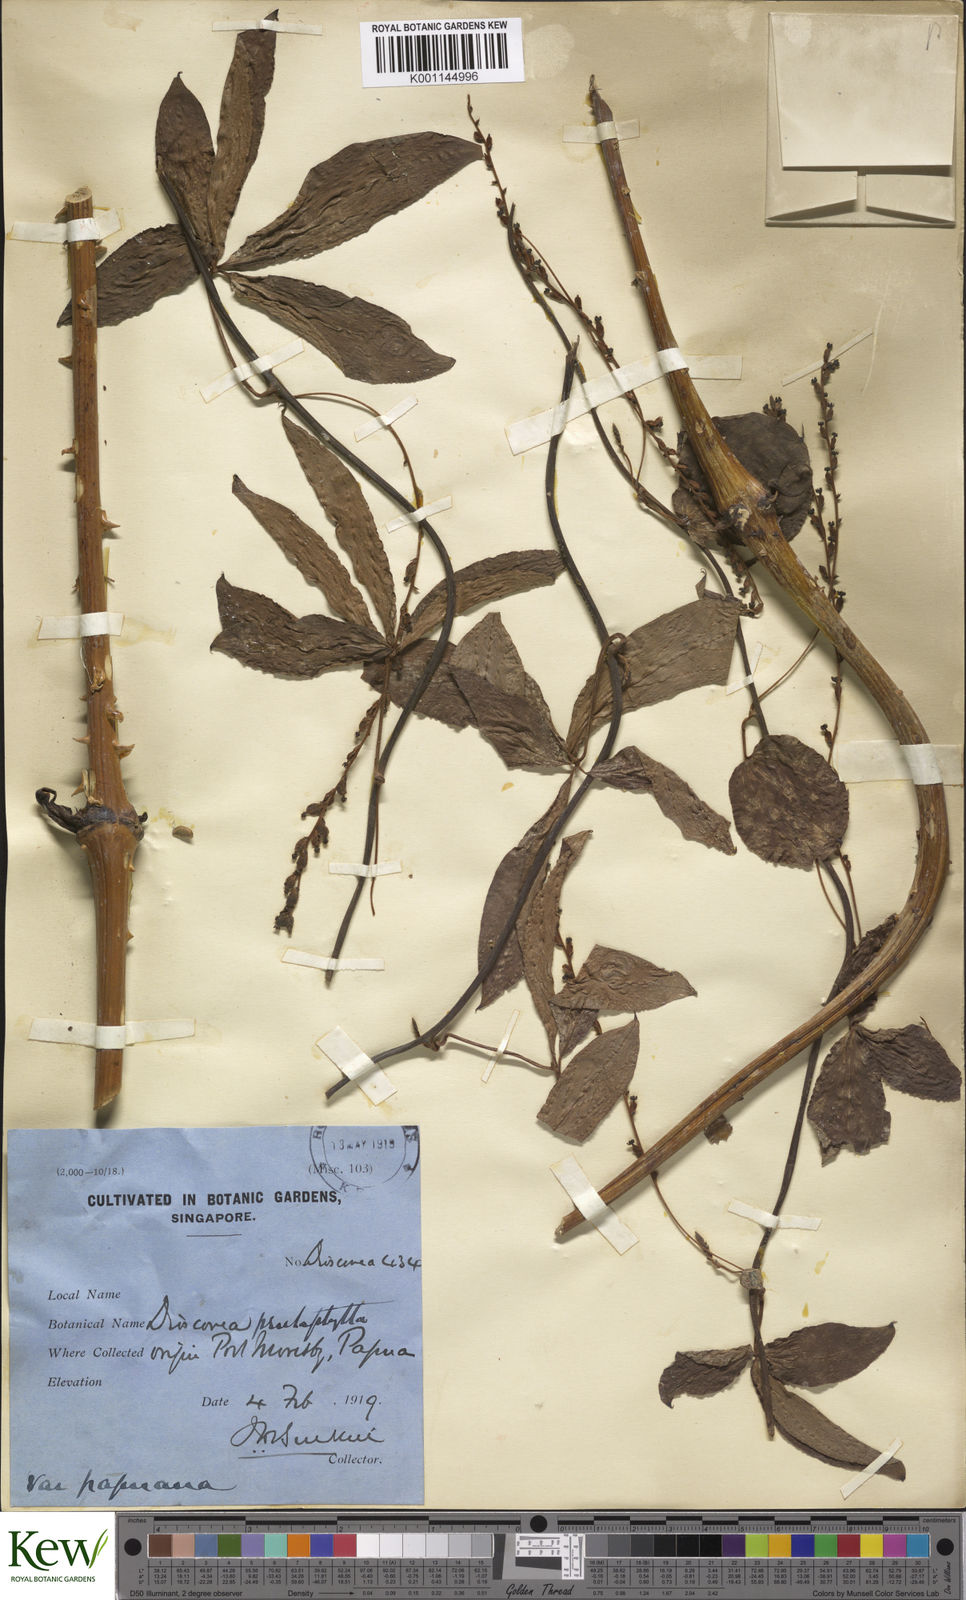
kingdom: Plantae
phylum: Tracheophyta
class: Liliopsida
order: Dioscoreales
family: Dioscoreaceae
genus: Dioscorea
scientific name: Dioscorea pentaphylla
